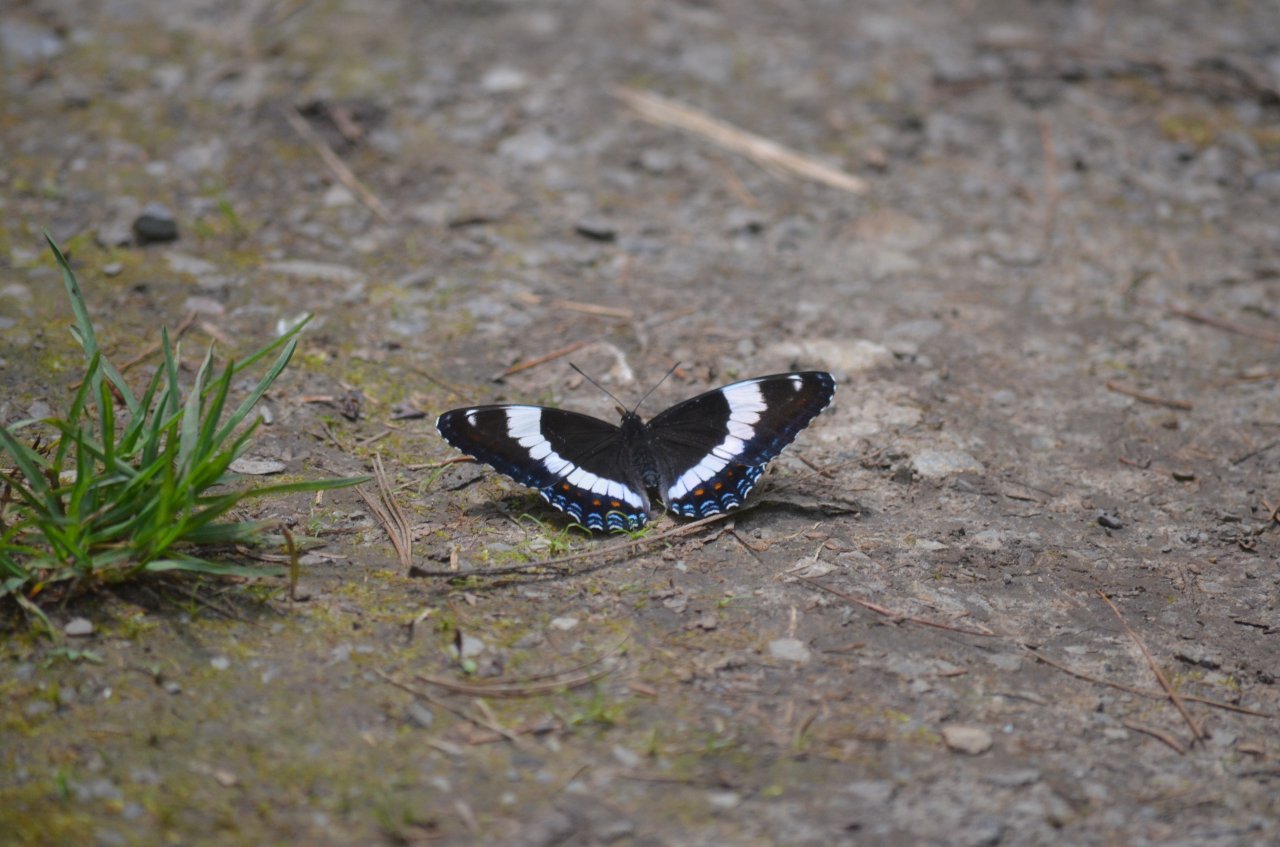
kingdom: Animalia
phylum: Arthropoda
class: Insecta
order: Lepidoptera
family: Nymphalidae
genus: Limenitis
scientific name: Limenitis arthemis
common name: Red-spotted Admiral
